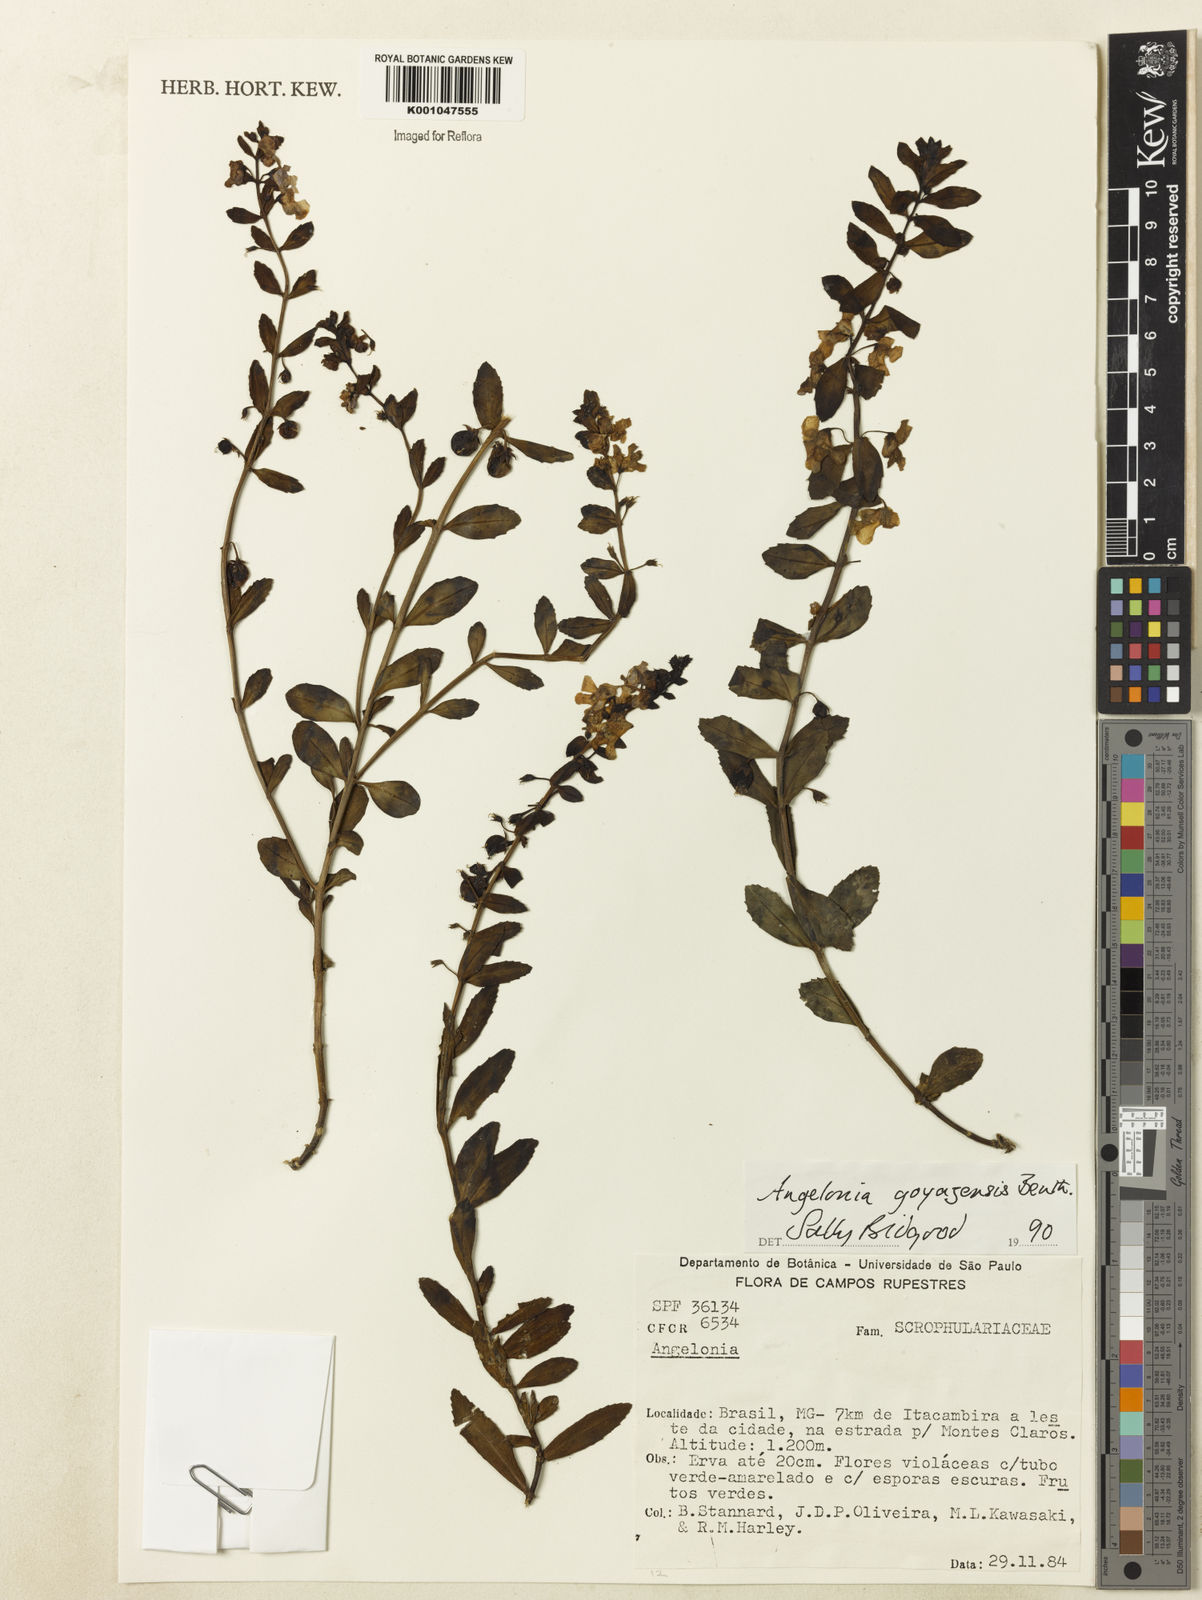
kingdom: Plantae
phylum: Tracheophyta
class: Magnoliopsida
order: Lamiales
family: Plantaginaceae
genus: Angelonia
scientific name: Angelonia goyazensis
